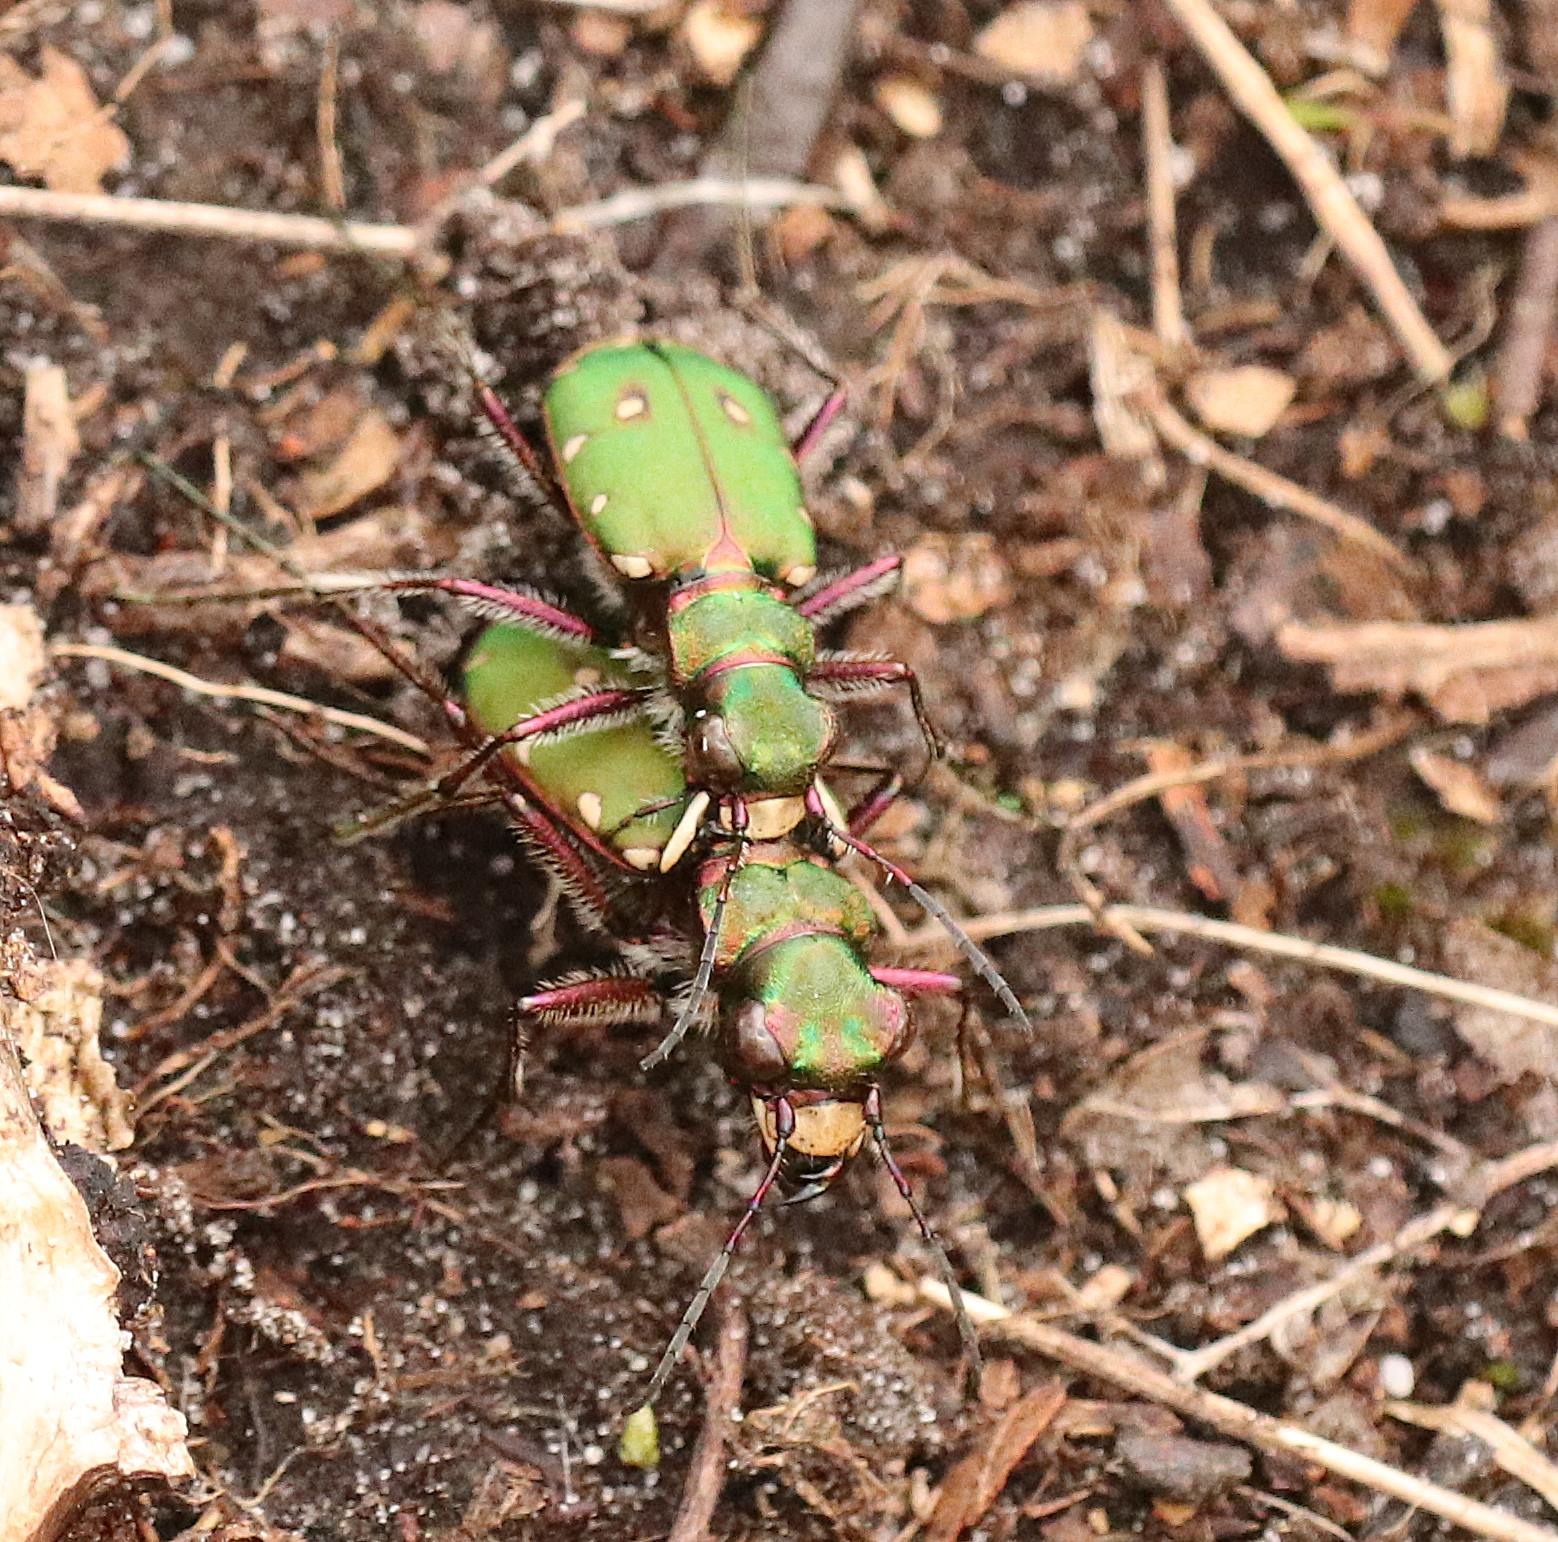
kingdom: Animalia
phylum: Arthropoda
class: Insecta
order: Coleoptera
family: Carabidae
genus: Cicindela
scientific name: Cicindela campestris
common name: Grøn sandspringer
